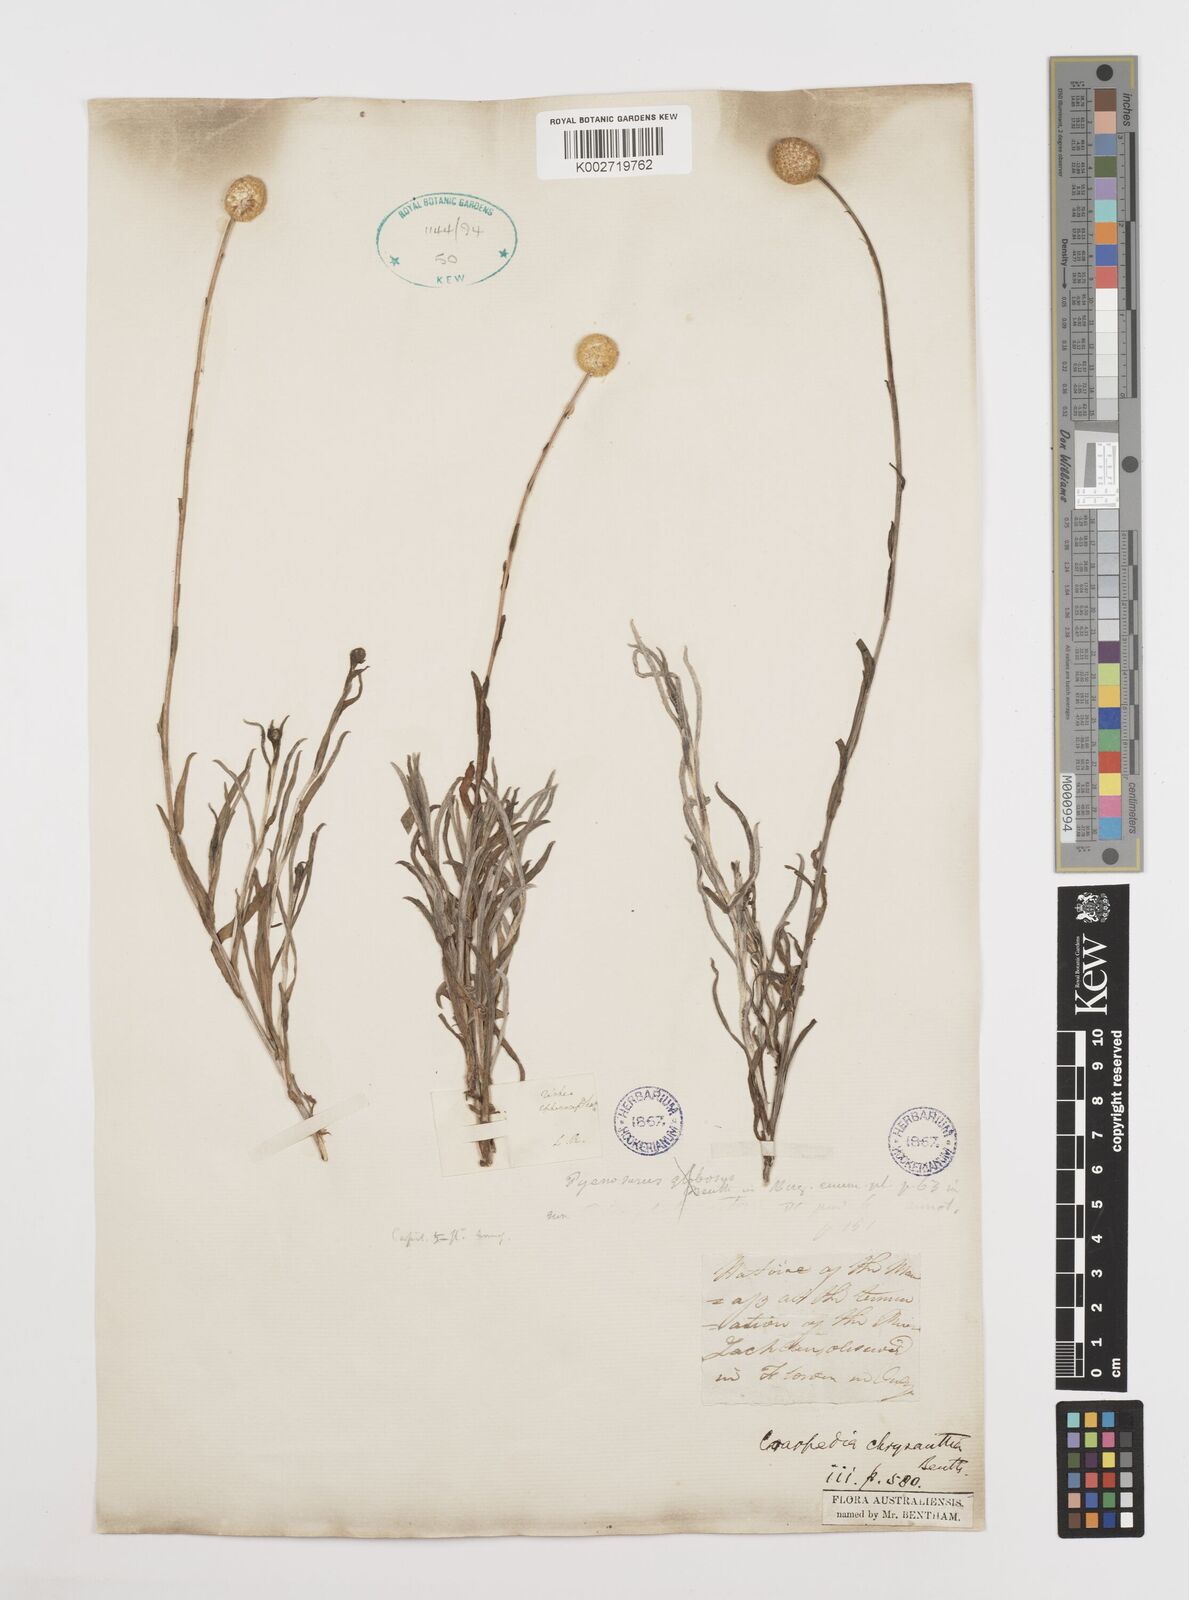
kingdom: Plantae
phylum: Tracheophyta
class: Magnoliopsida
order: Asterales
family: Asteraceae
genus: Pycnosorus
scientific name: Pycnosorus chrysanthus
